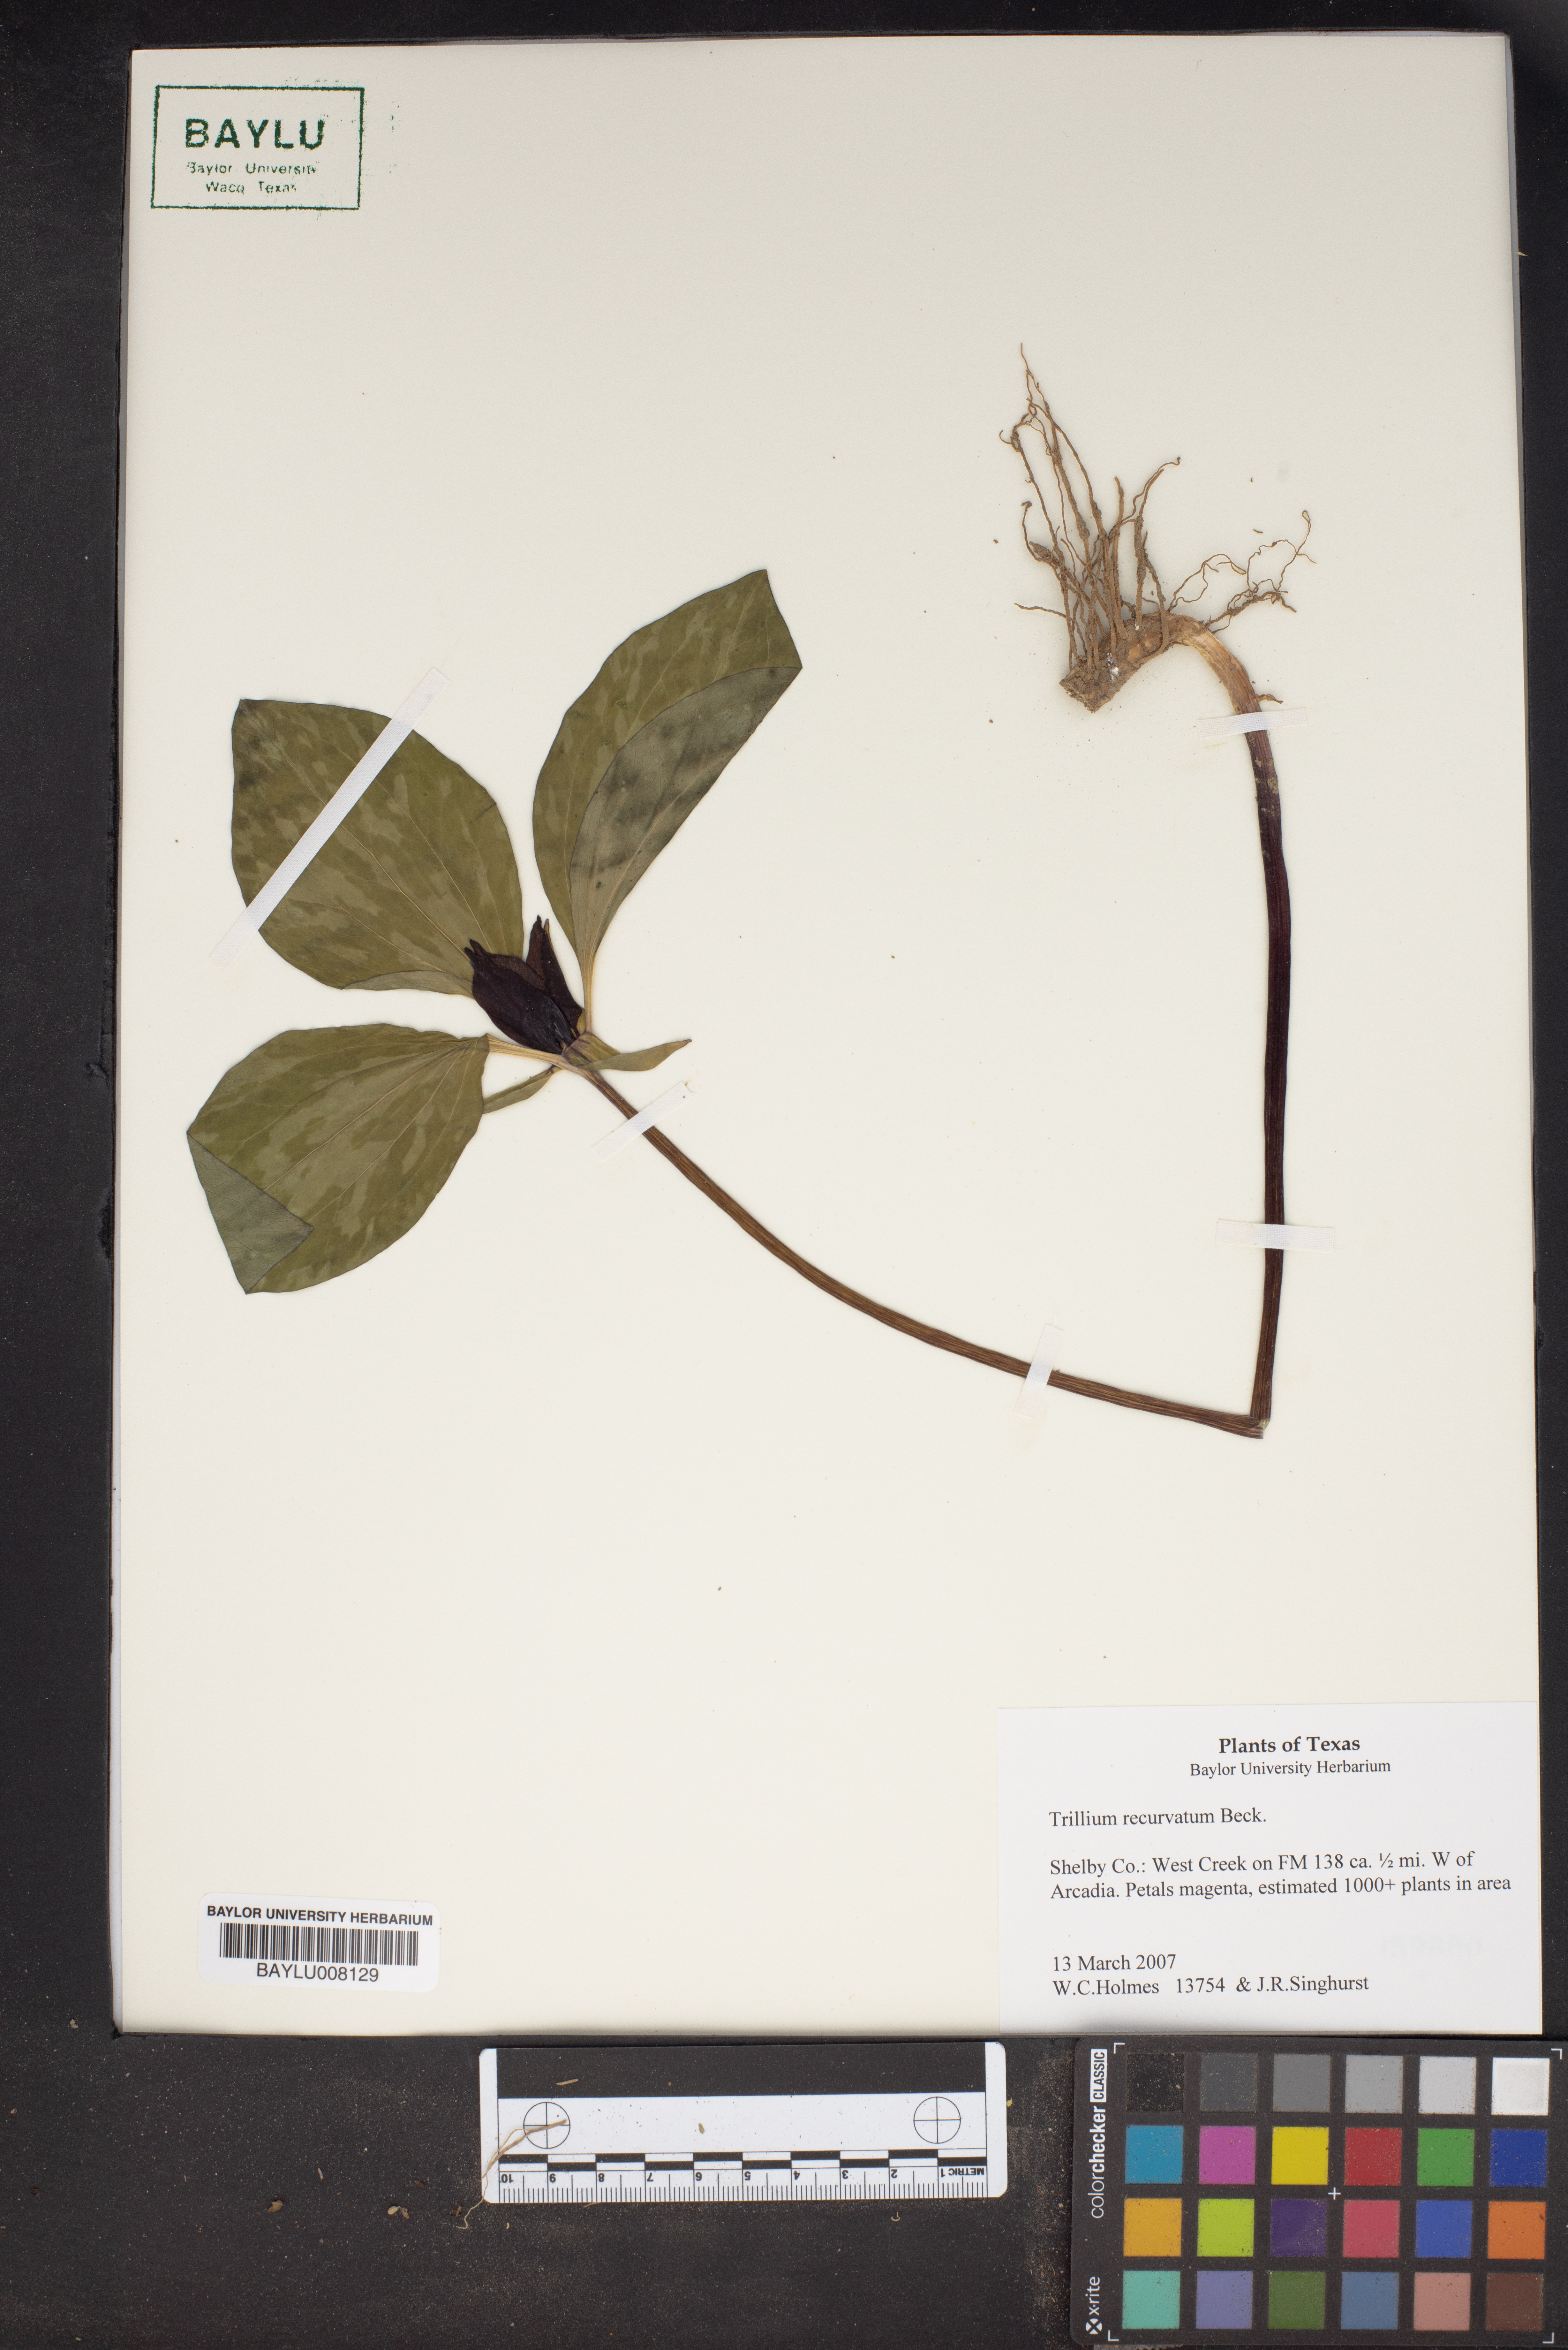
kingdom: Plantae
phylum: Tracheophyta
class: Liliopsida
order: Liliales
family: Melanthiaceae
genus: Trillium
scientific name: Trillium recurvatum
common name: Bloody butcher
